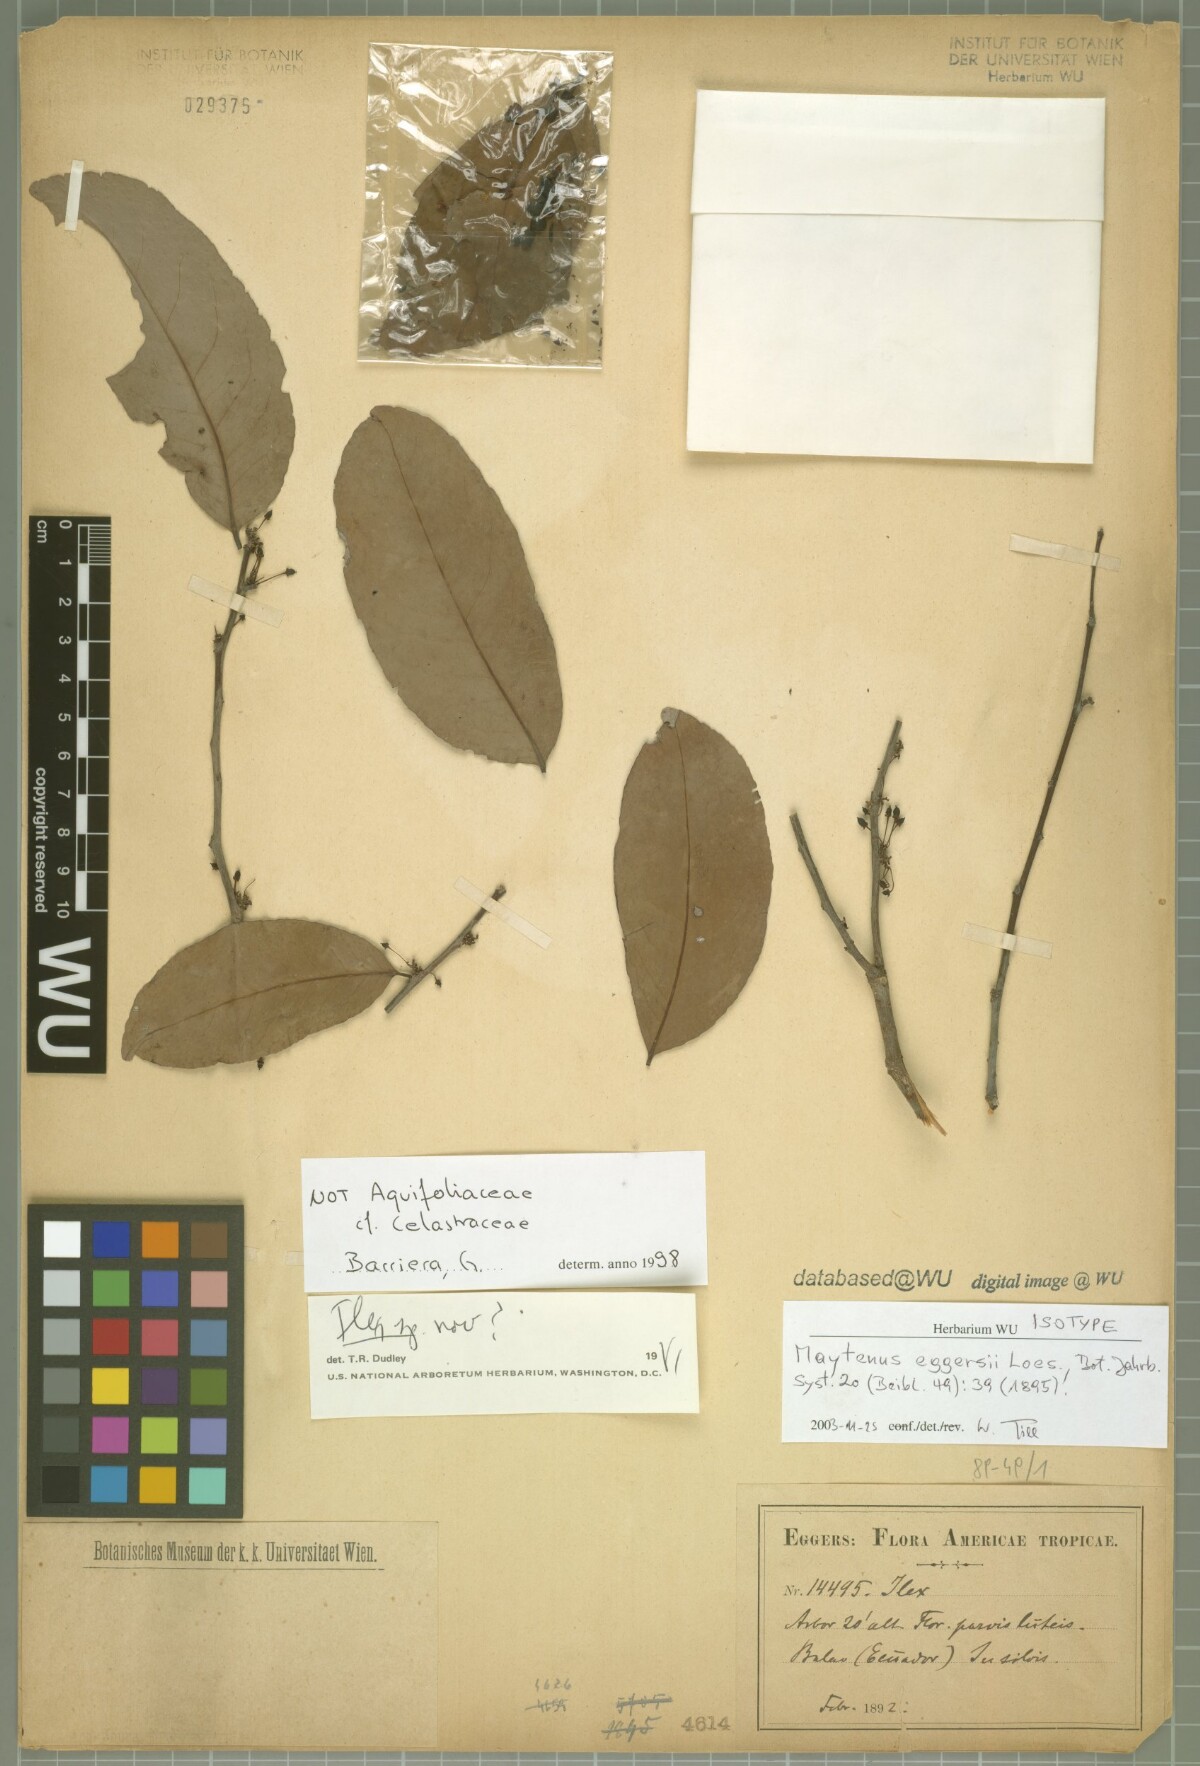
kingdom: Plantae
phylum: Tracheophyta
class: Magnoliopsida
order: Celastrales
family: Celastraceae
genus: Monteverdia
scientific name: Monteverdia eggersii
